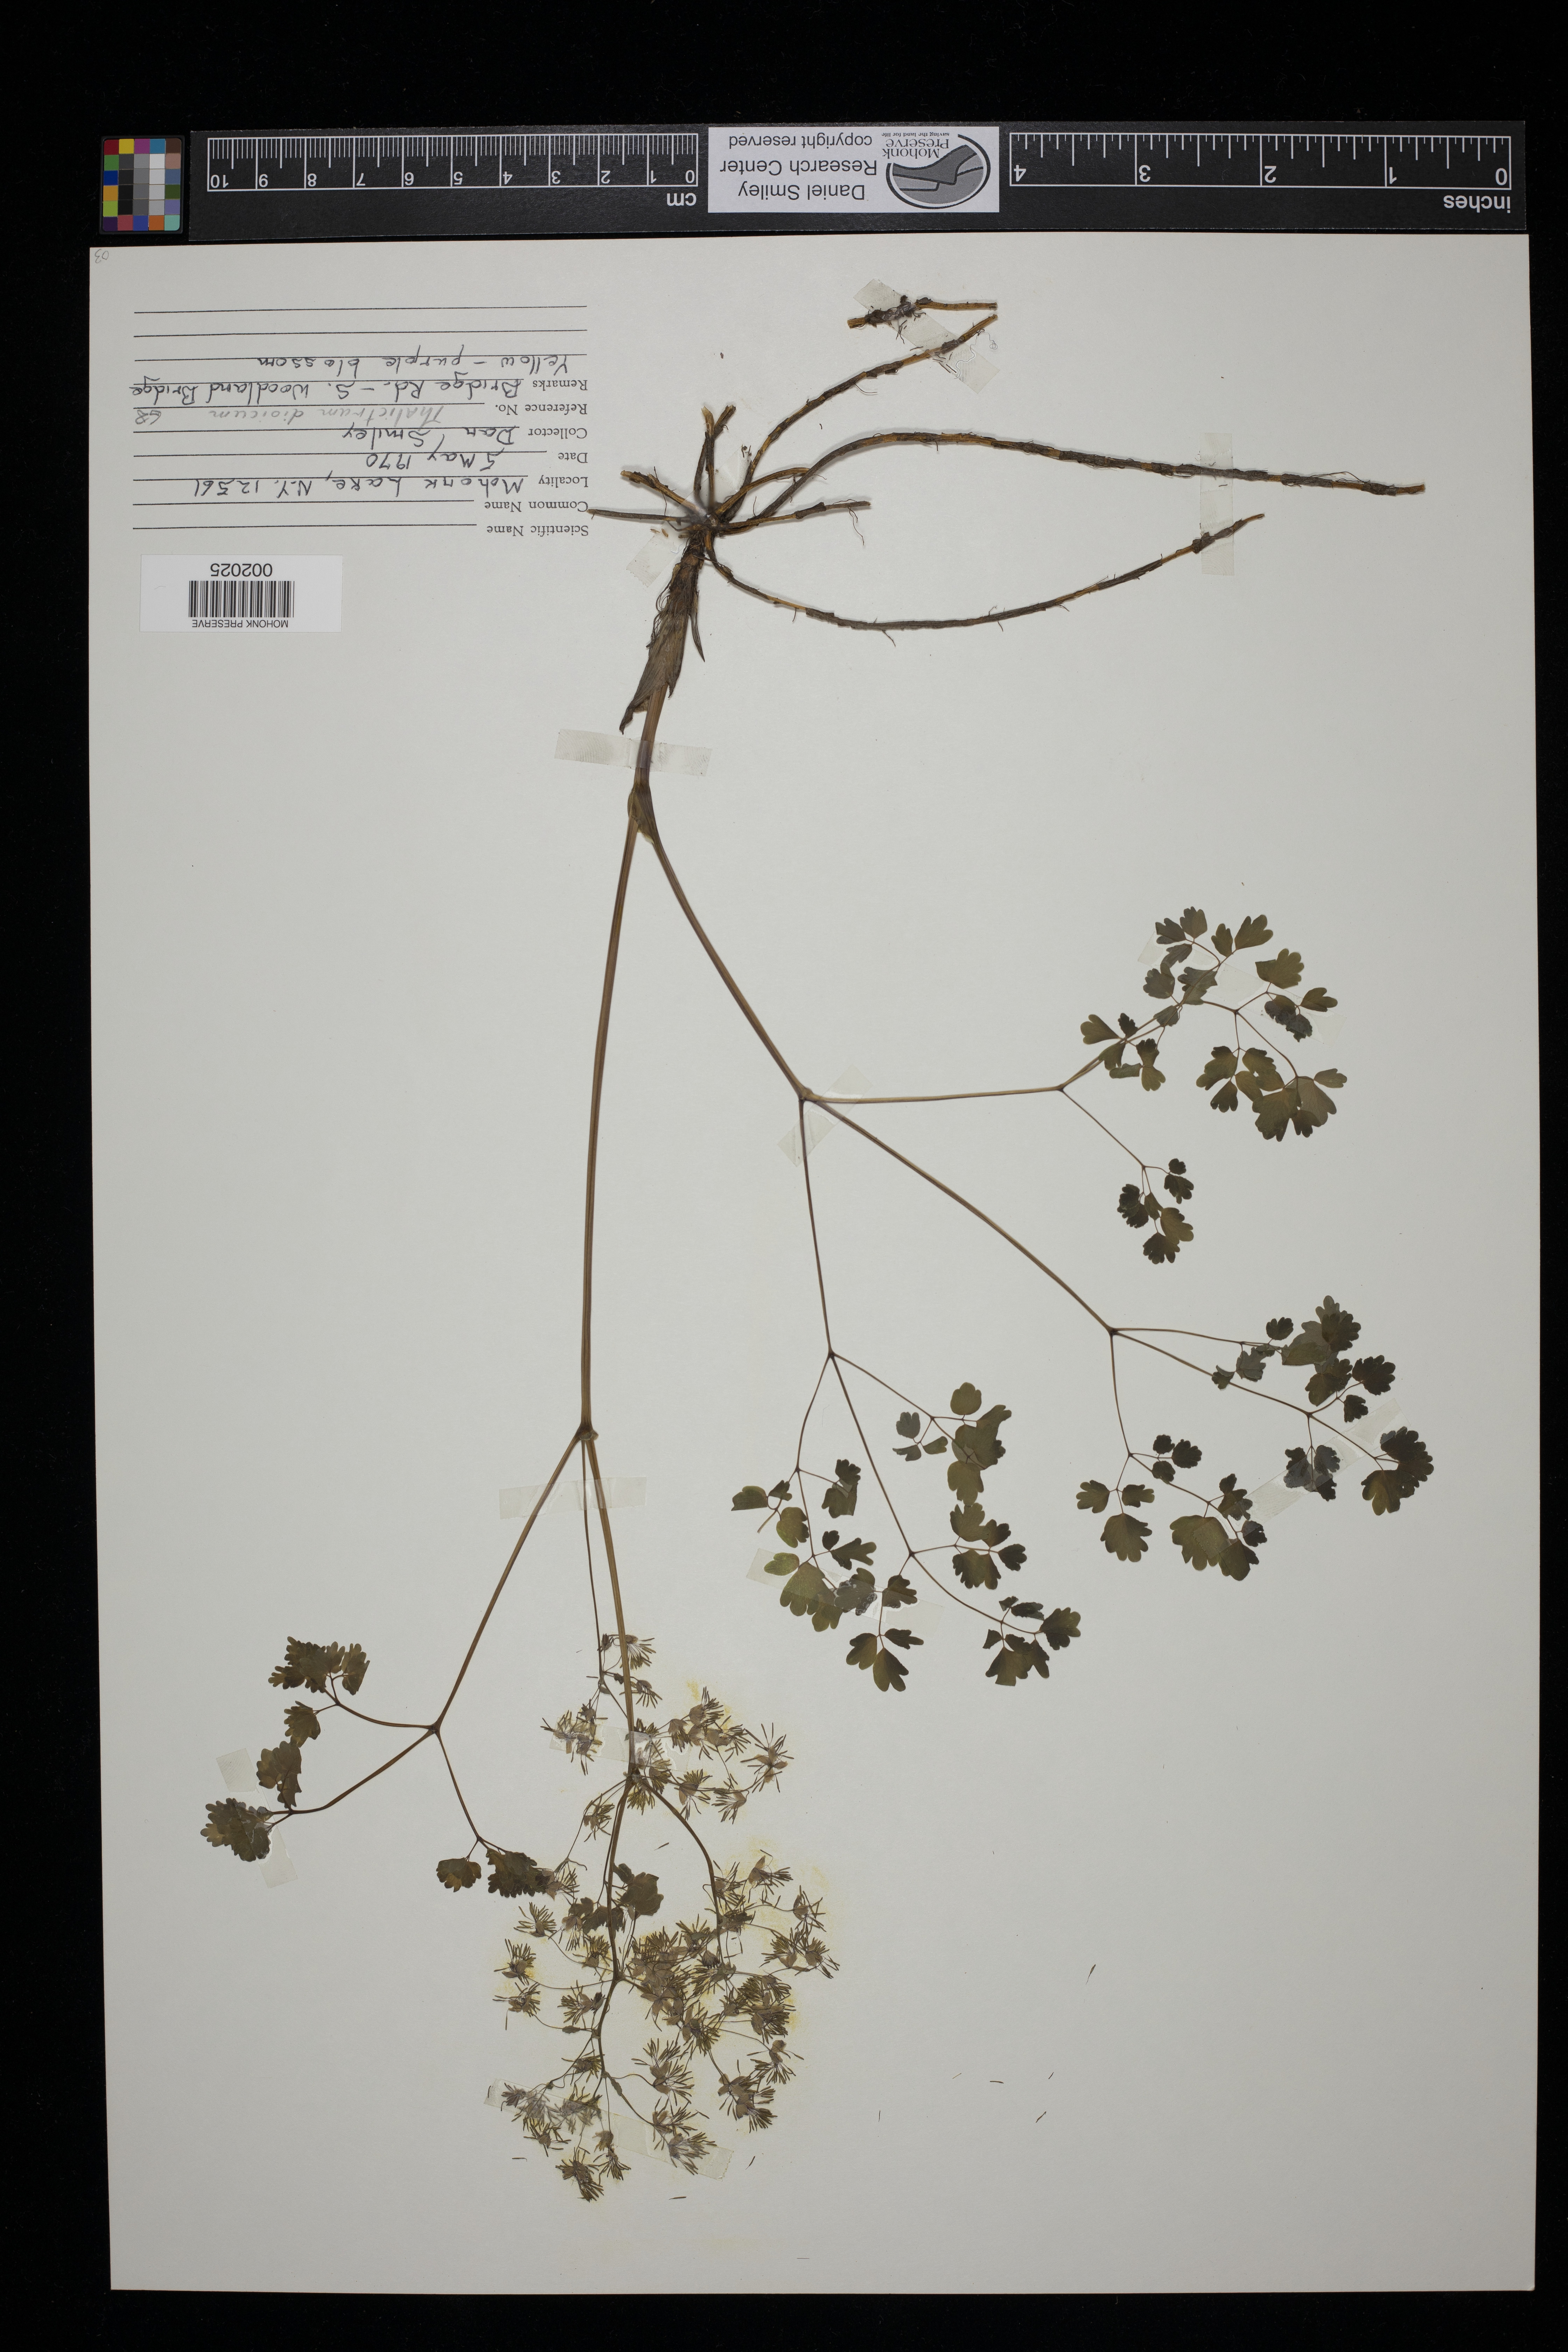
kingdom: Plantae
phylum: Tracheophyta
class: Magnoliopsida
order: Ranunculales
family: Ranunculaceae
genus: Thalictrum
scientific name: Thalictrum dioicum
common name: Early meadow-rue
